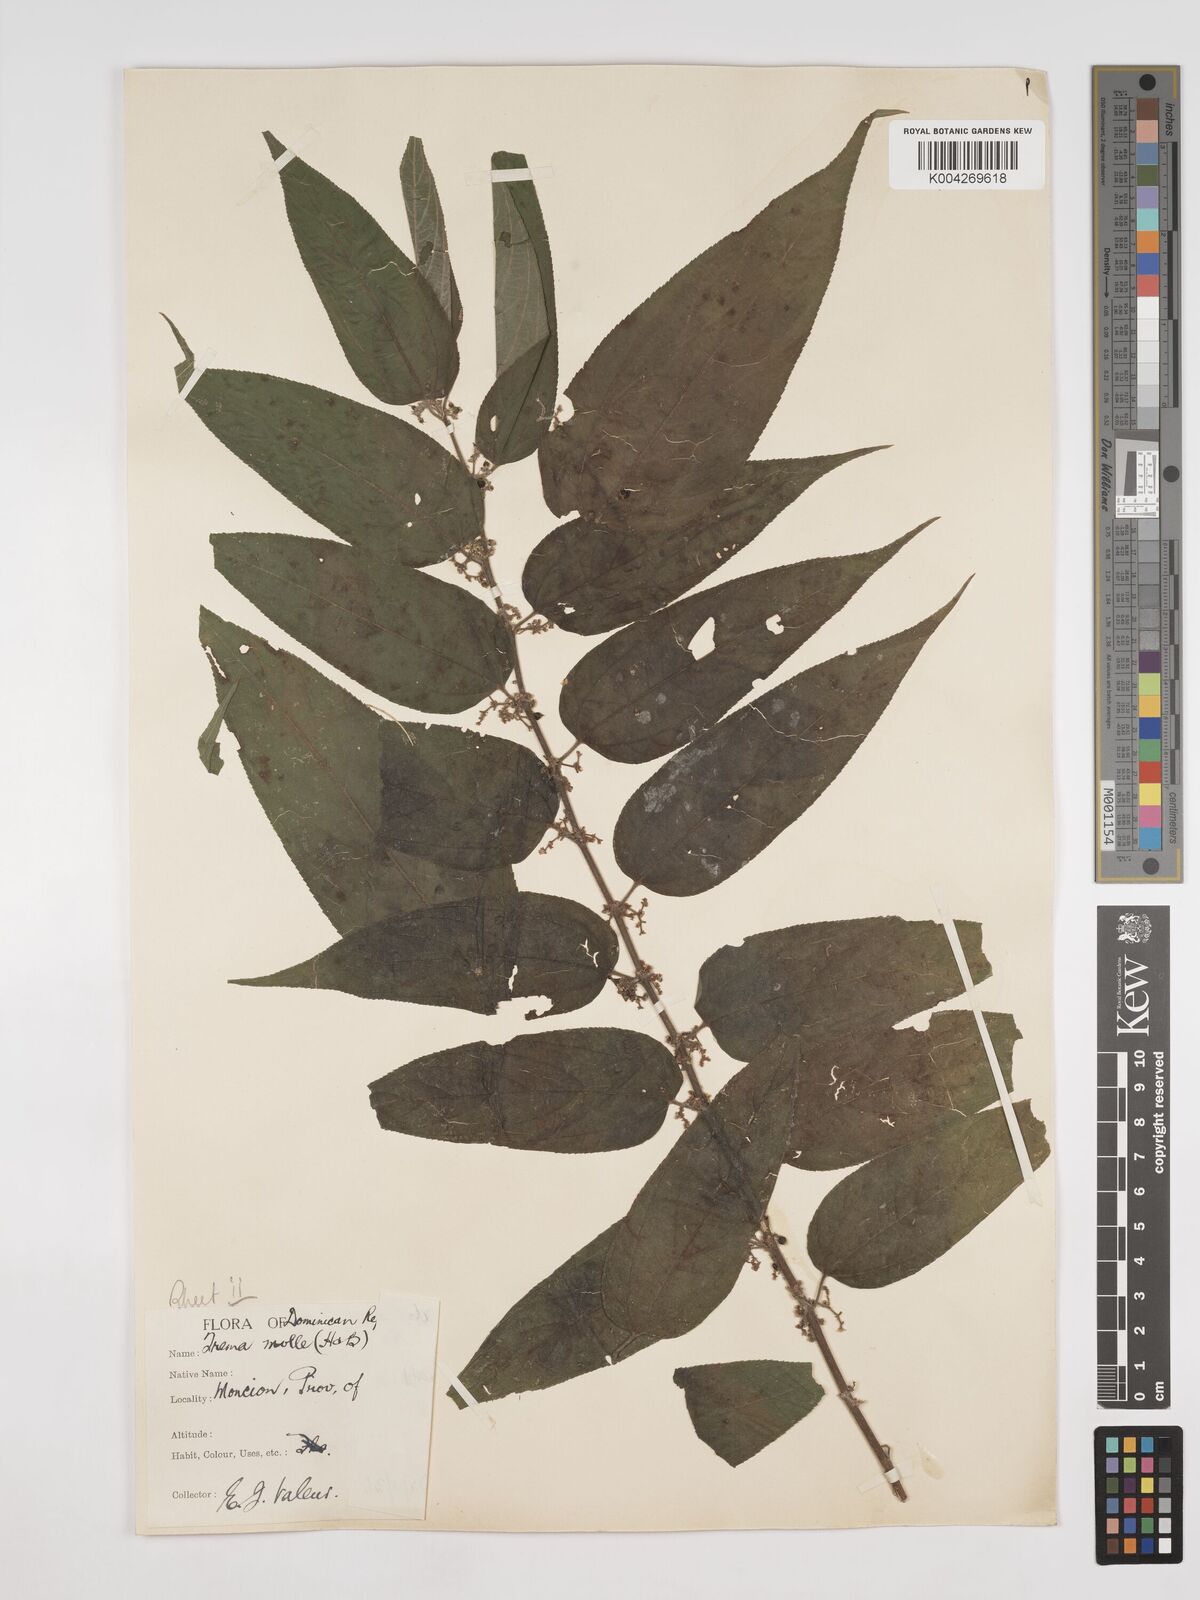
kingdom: Plantae
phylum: Tracheophyta
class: Magnoliopsida
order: Rosales
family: Cannabaceae
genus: Trema
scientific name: Trema micranthum
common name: Jamaican nettletree
